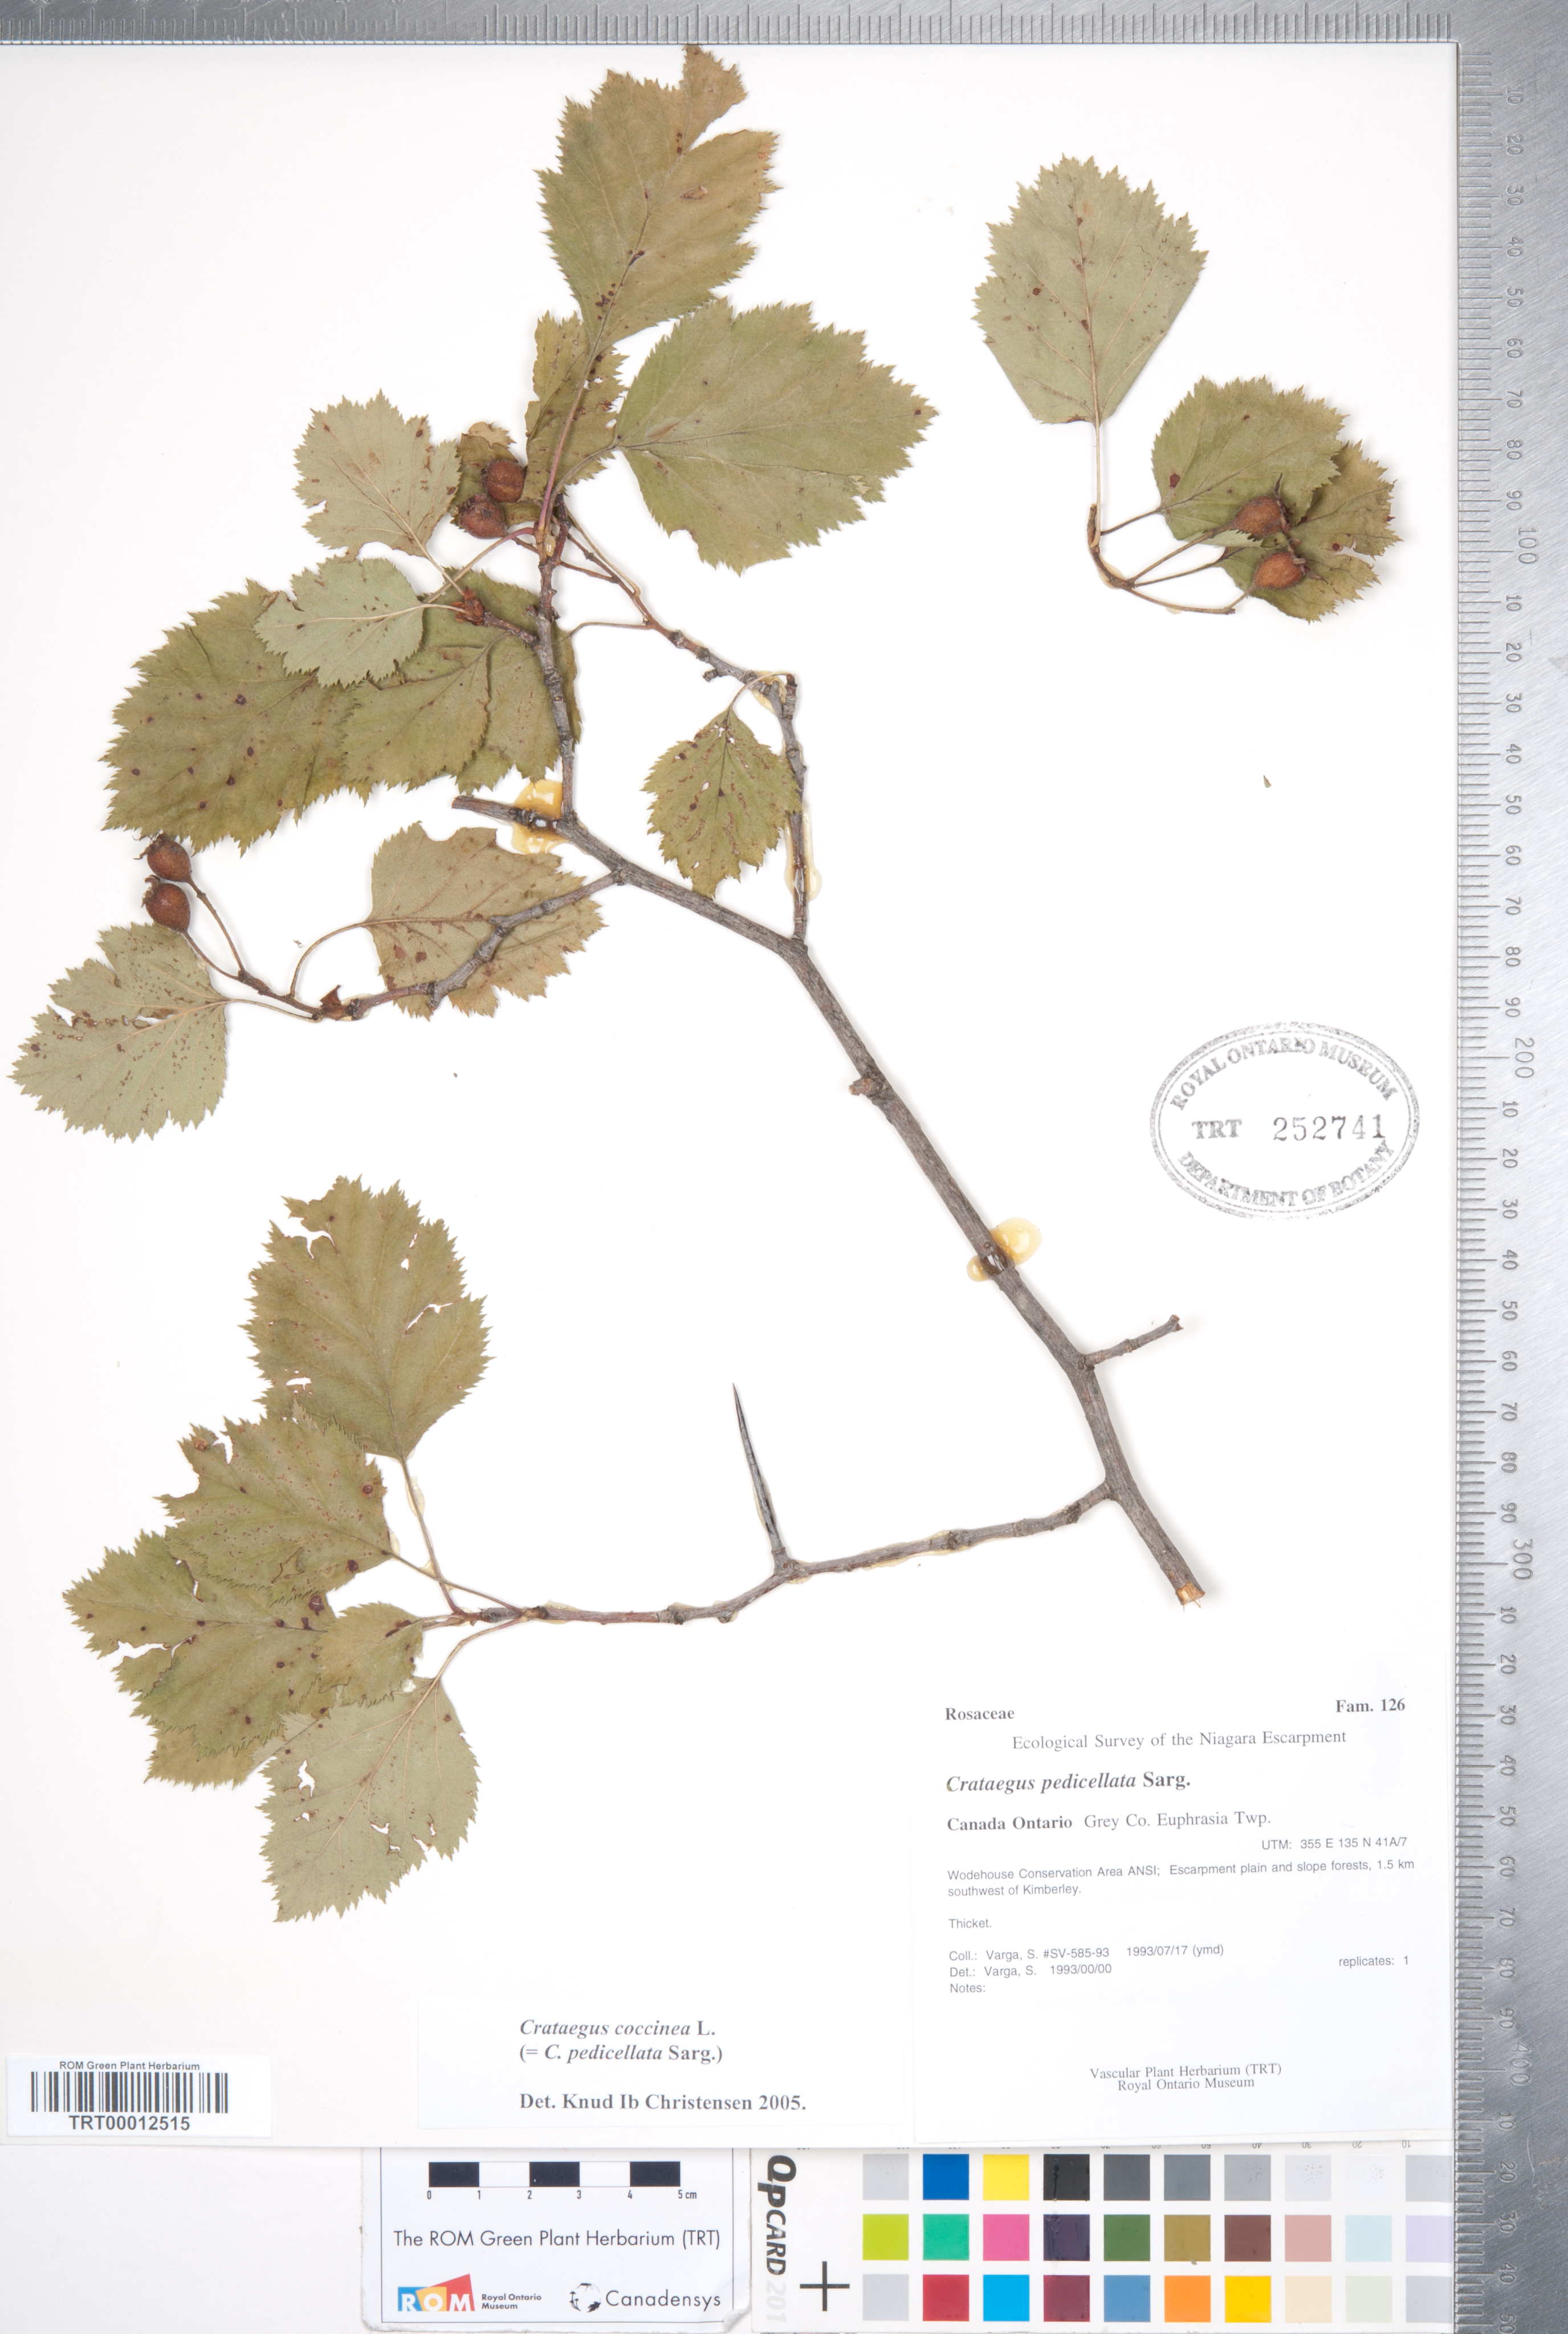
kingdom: Plantae
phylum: Tracheophyta
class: Magnoliopsida
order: Rosales
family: Rosaceae
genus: Crataegus
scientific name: Crataegus coccinea
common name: Scarlet hawthorn
